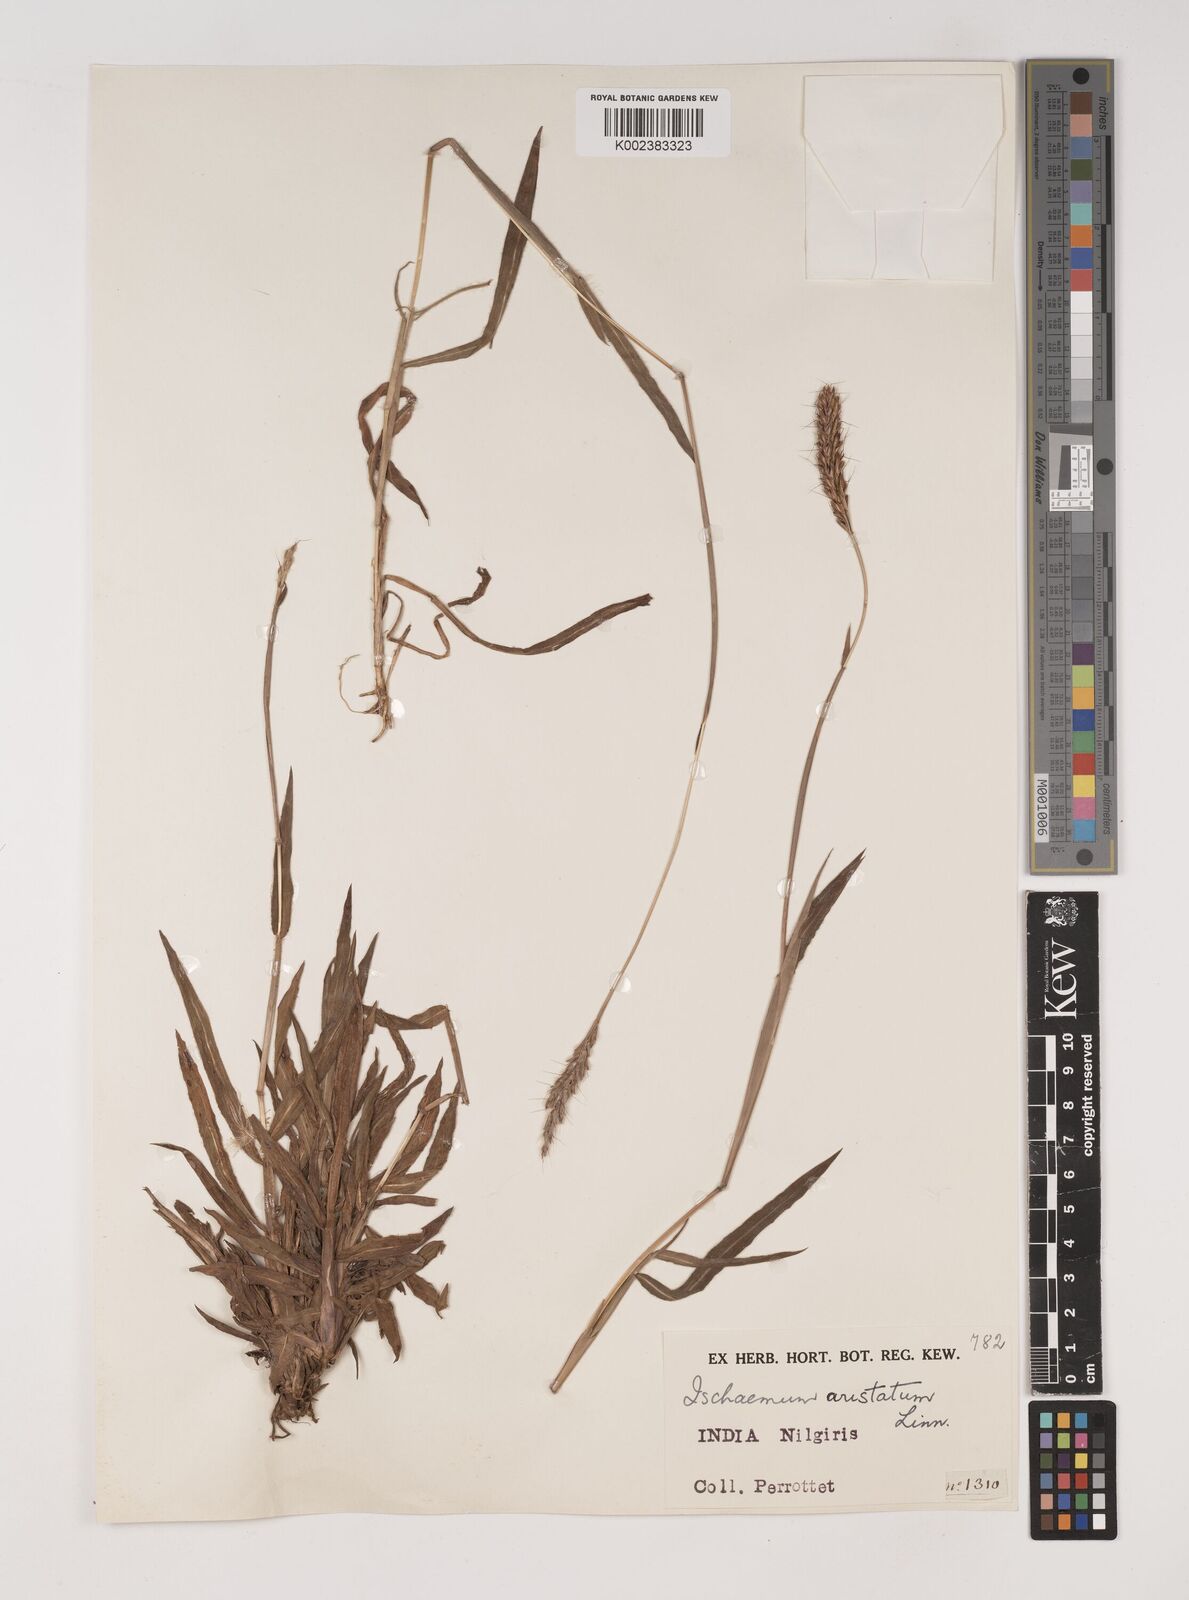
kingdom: Plantae
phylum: Tracheophyta
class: Liliopsida
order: Poales
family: Poaceae
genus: Polytrias
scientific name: Polytrias indica
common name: Indian murainagrass
